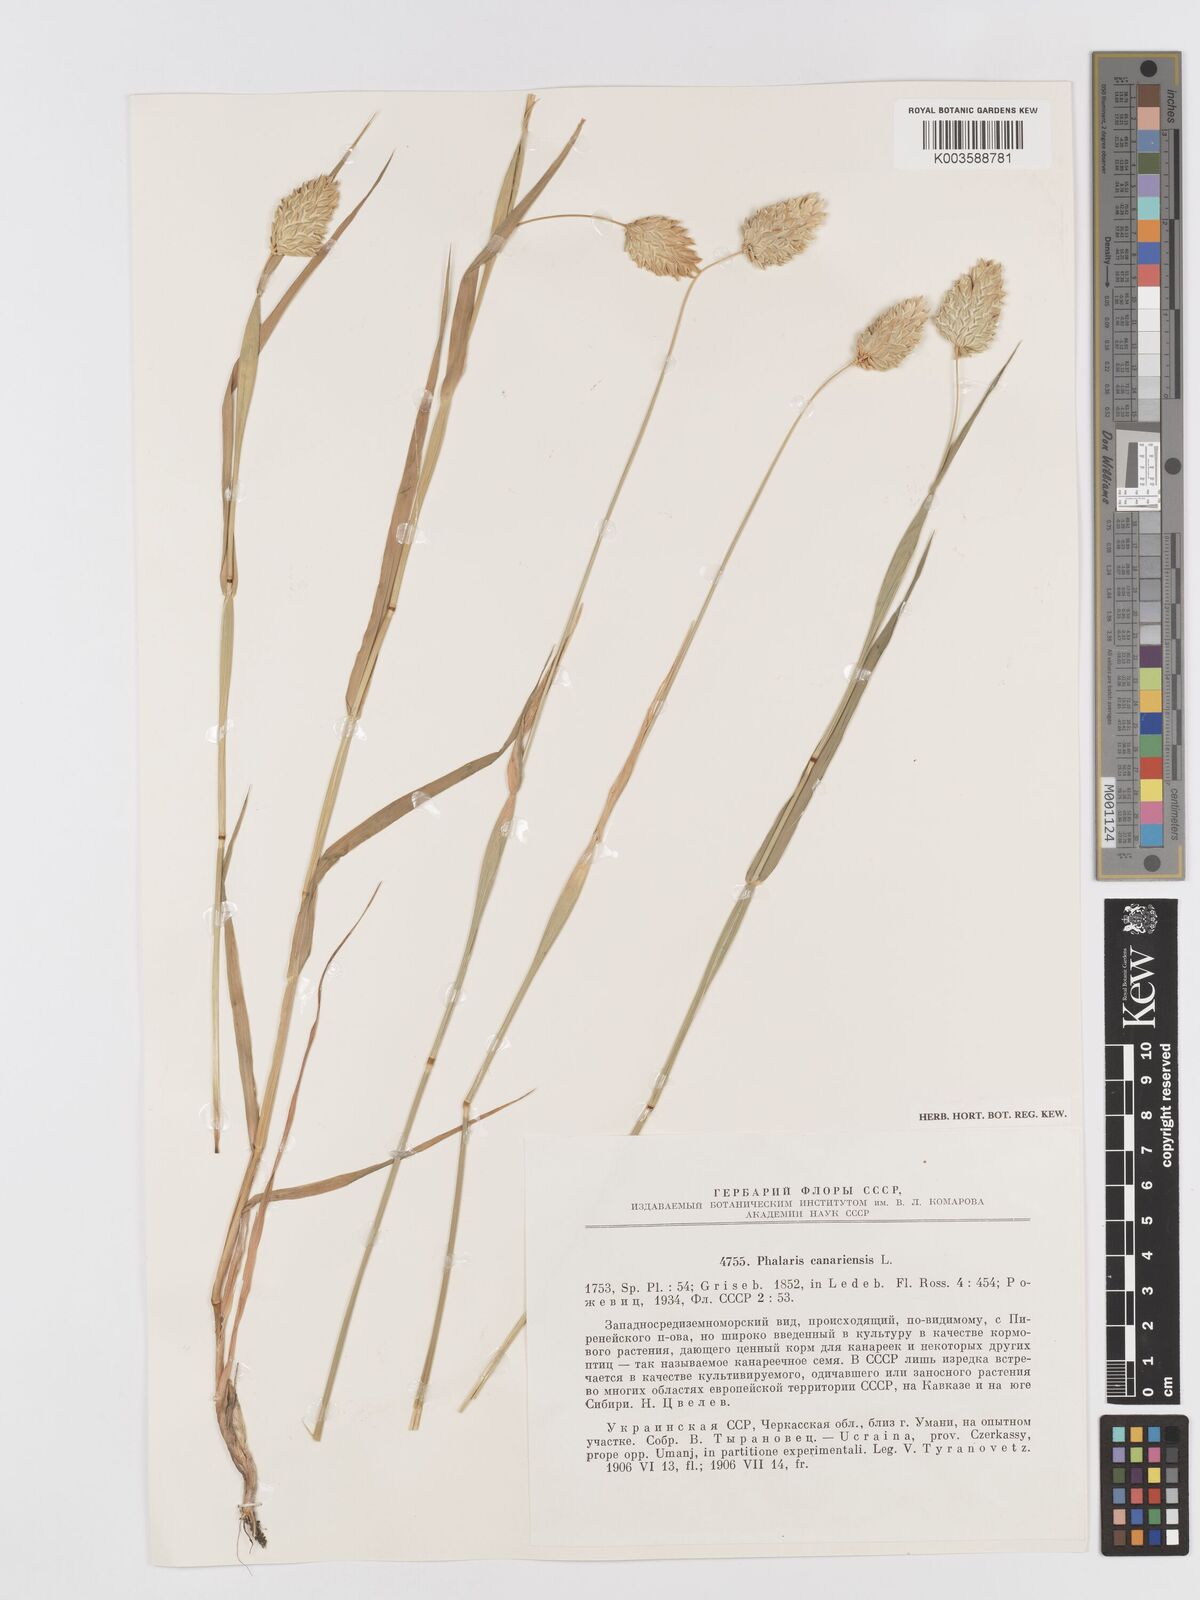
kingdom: Plantae
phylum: Tracheophyta
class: Liliopsida
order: Poales
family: Poaceae
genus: Phalaris
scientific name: Phalaris canariensis
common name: Annual canarygrass
